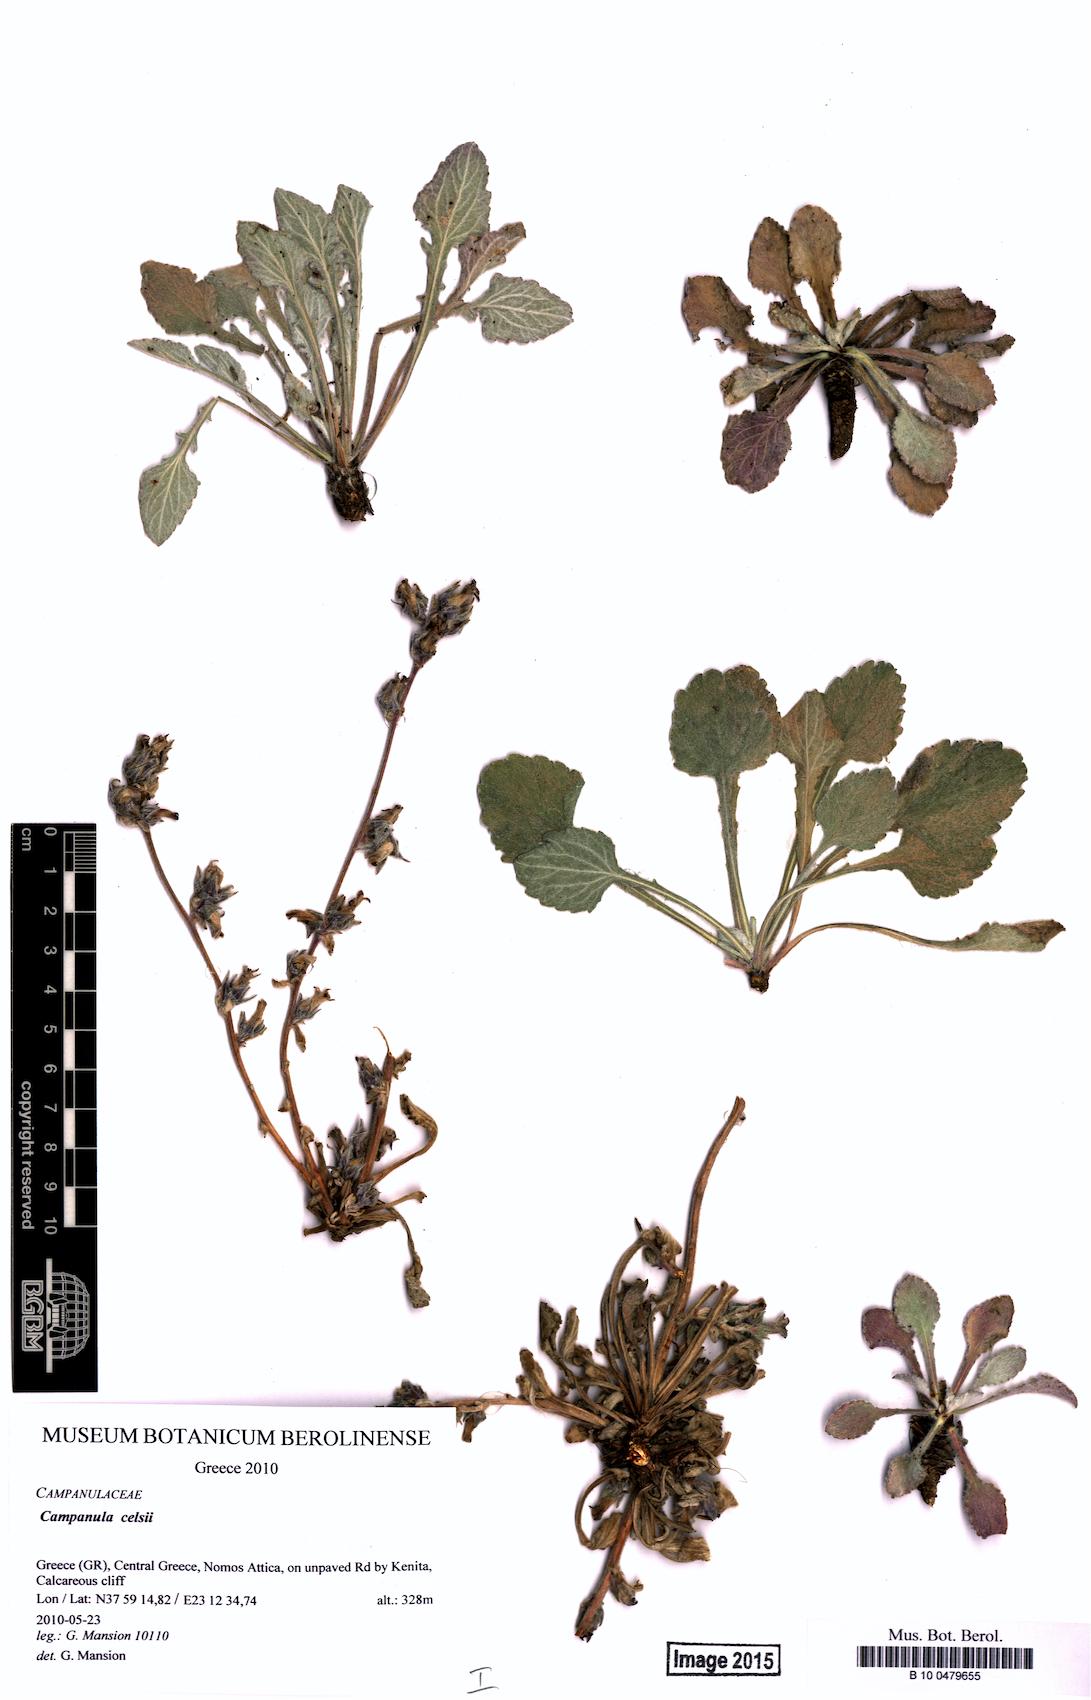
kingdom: Plantae
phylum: Tracheophyta
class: Magnoliopsida
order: Asterales
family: Campanulaceae
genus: Campanula
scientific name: Campanula celsii
